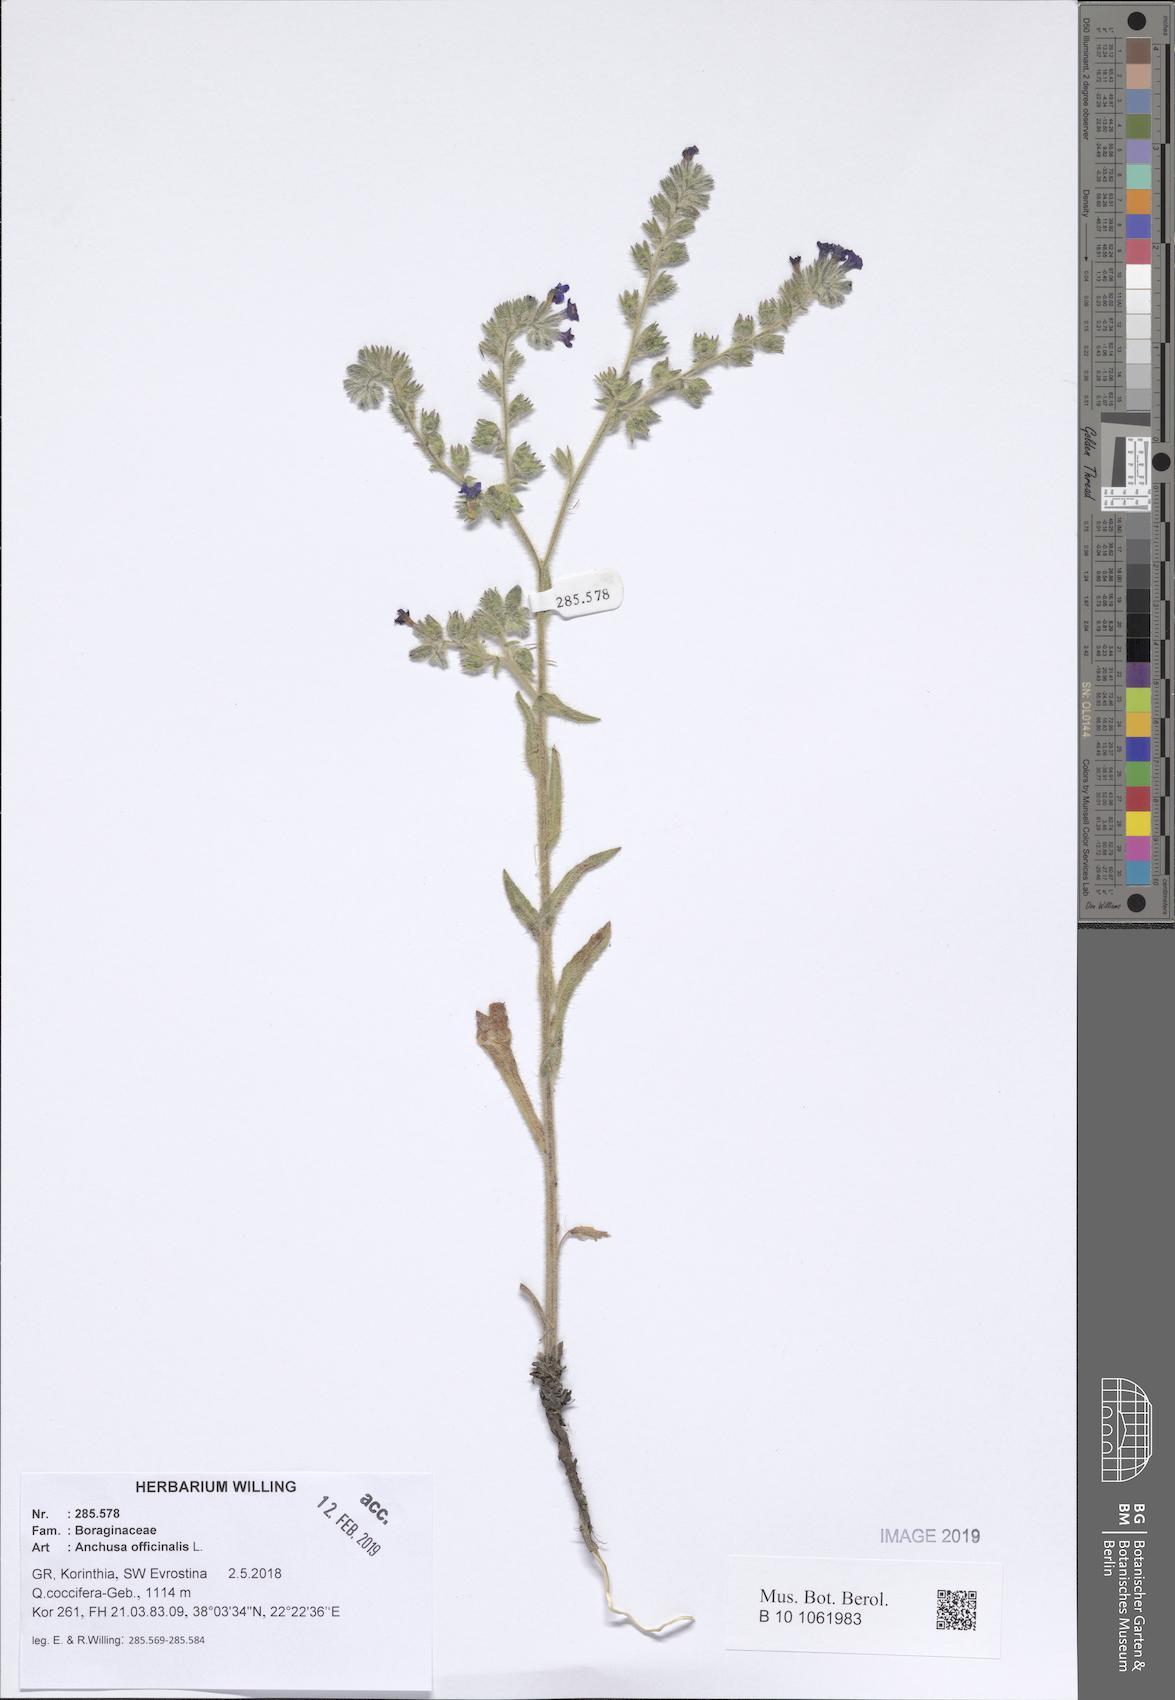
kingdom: Plantae
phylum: Tracheophyta
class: Magnoliopsida
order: Boraginales
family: Boraginaceae
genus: Anchusa
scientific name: Anchusa officinalis
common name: Alkanet
